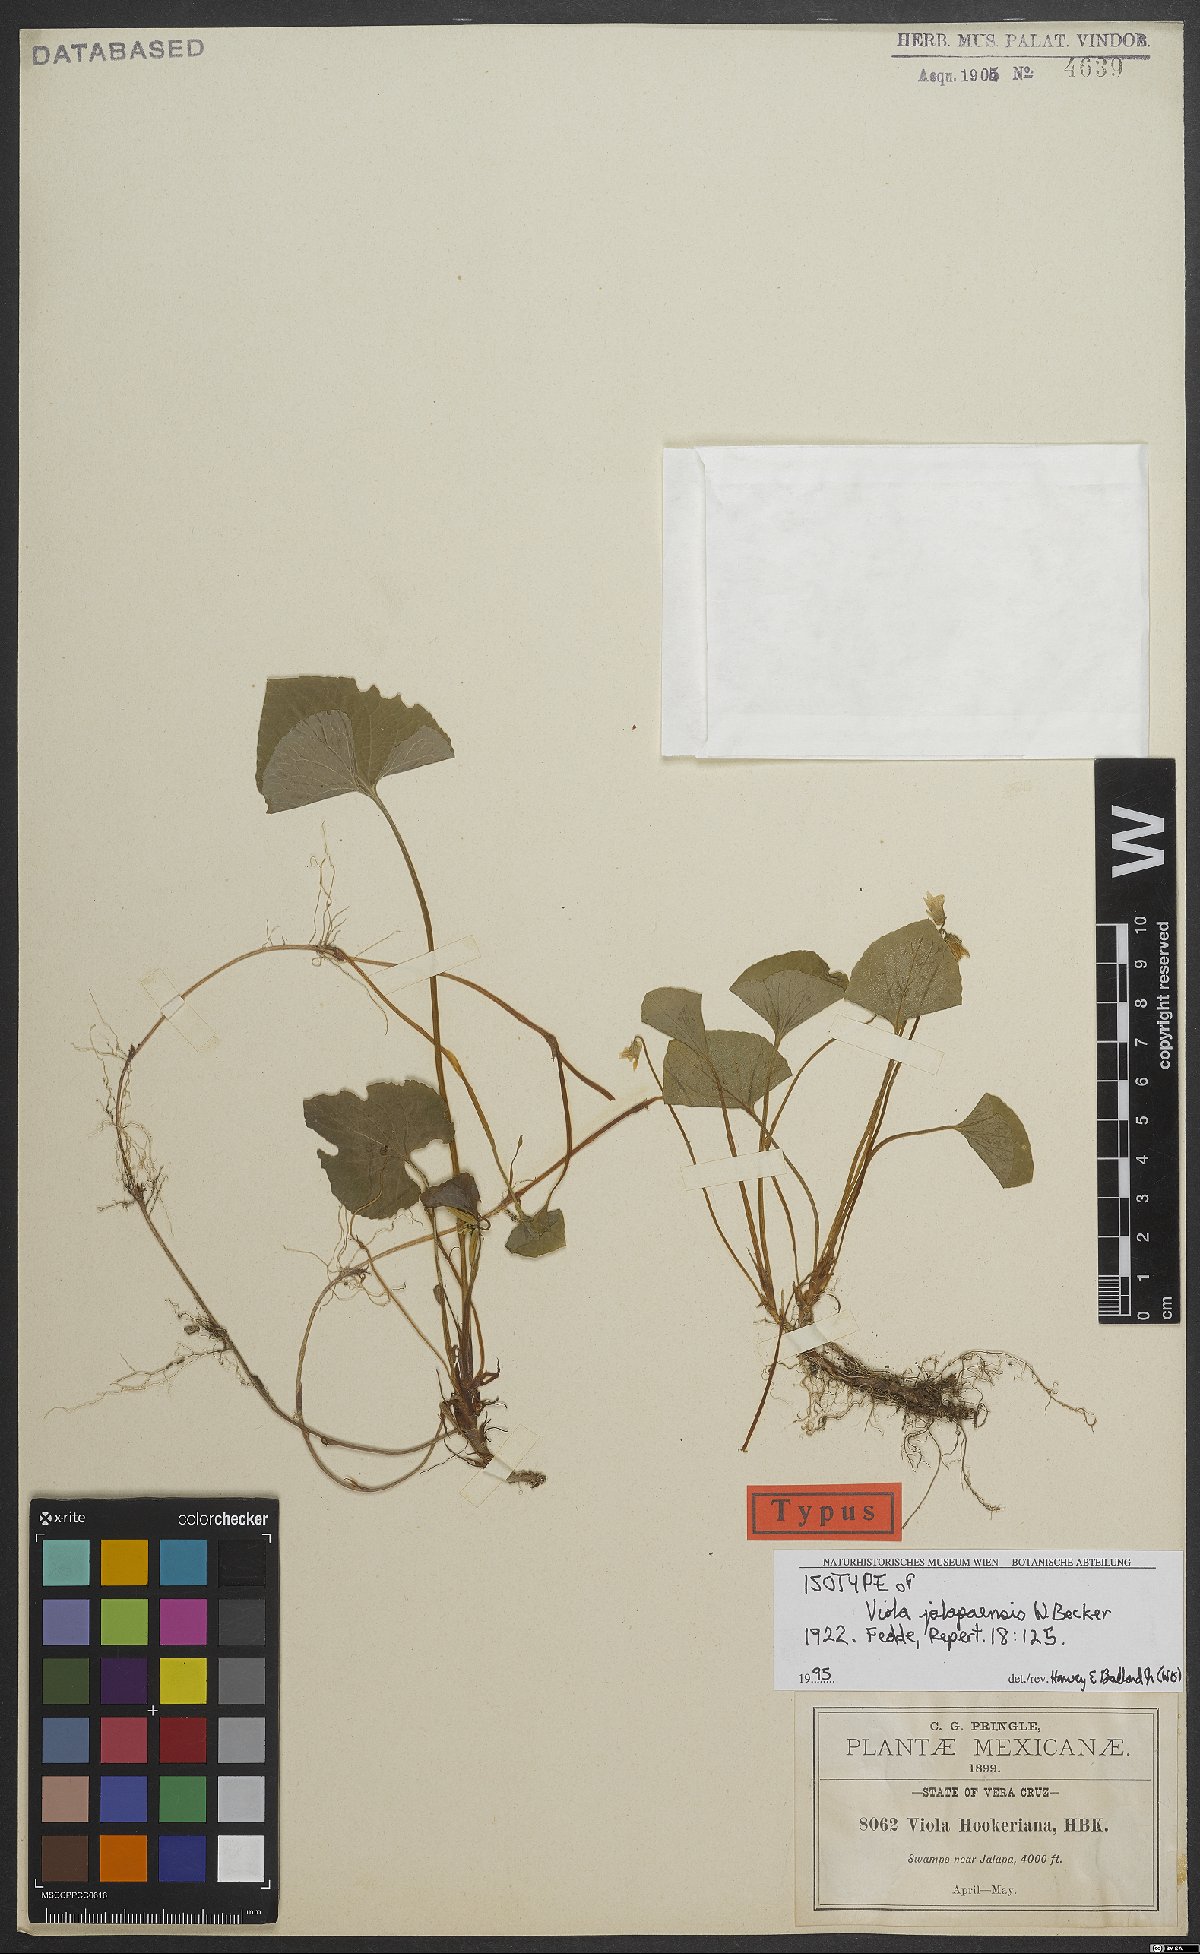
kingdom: Plantae
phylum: Tracheophyta
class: Magnoliopsida
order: Malpighiales
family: Violaceae
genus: Viola
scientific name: Viola jalapaensis
